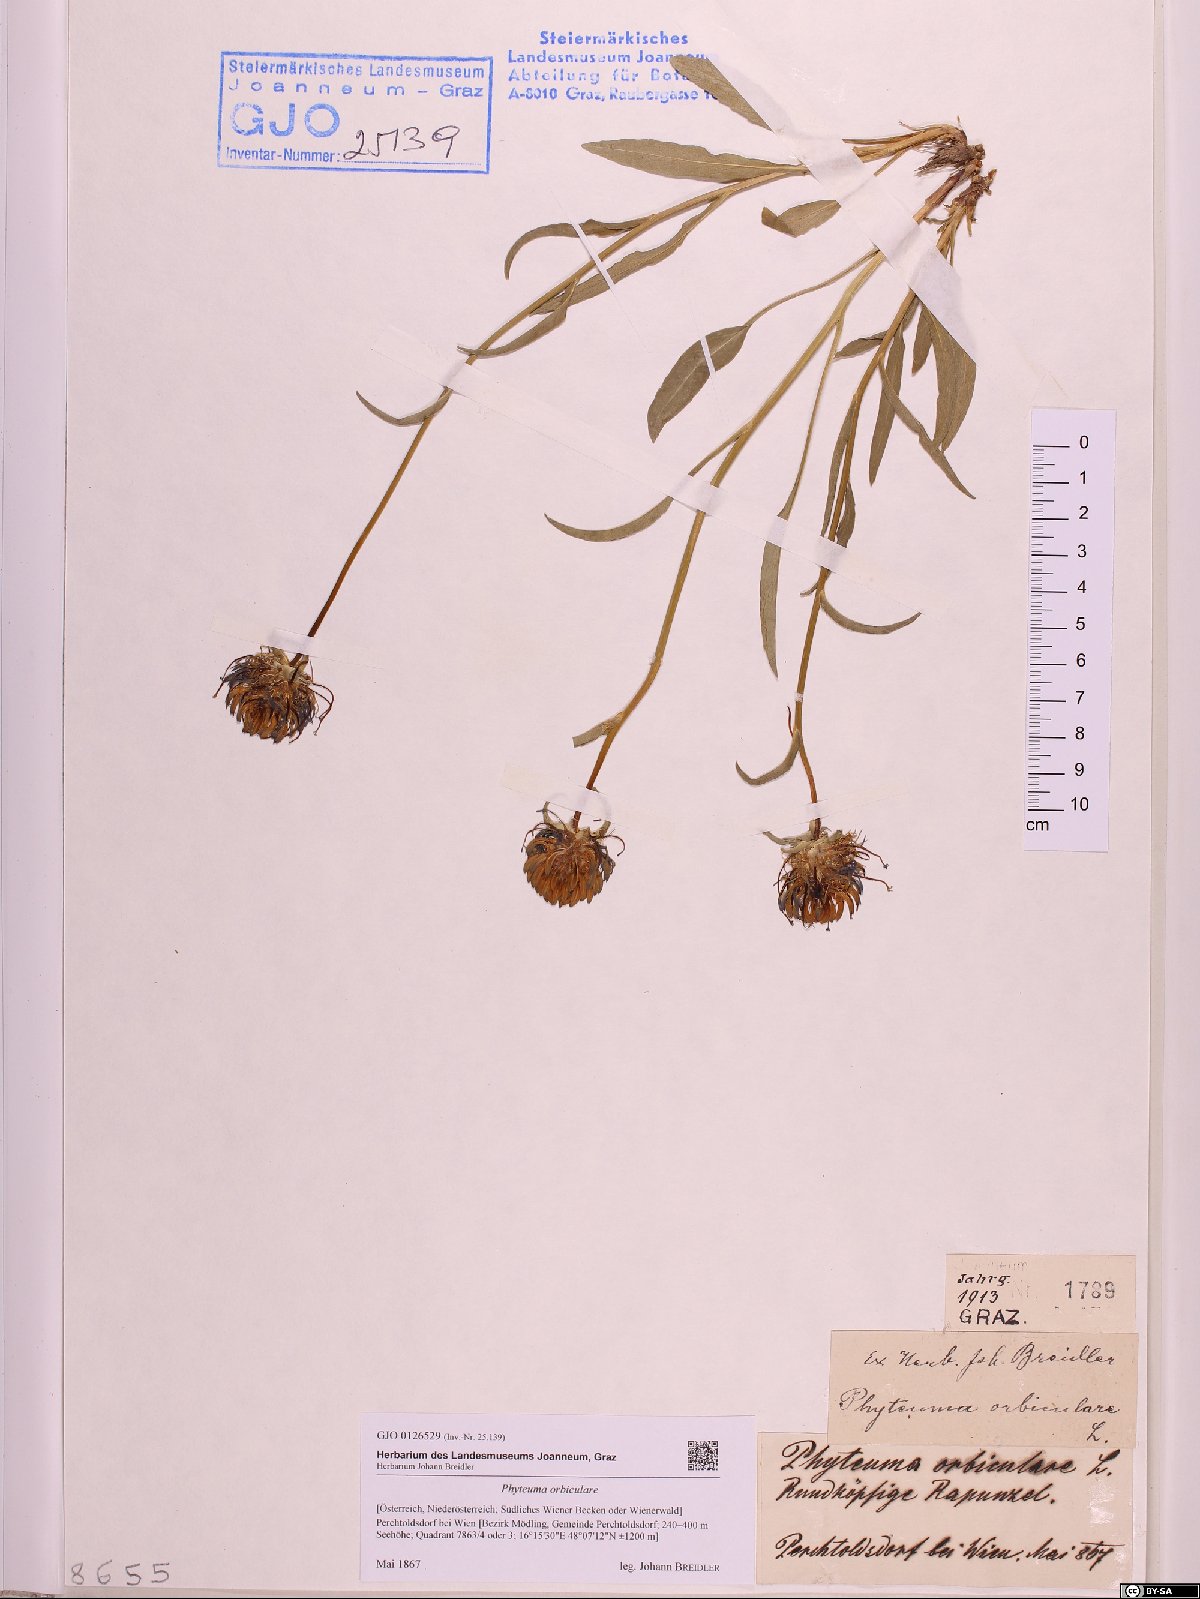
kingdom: Plantae
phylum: Tracheophyta
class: Magnoliopsida
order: Asterales
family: Campanulaceae
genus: Phyteuma
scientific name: Phyteuma orbiculare
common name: Round-headed rampion
